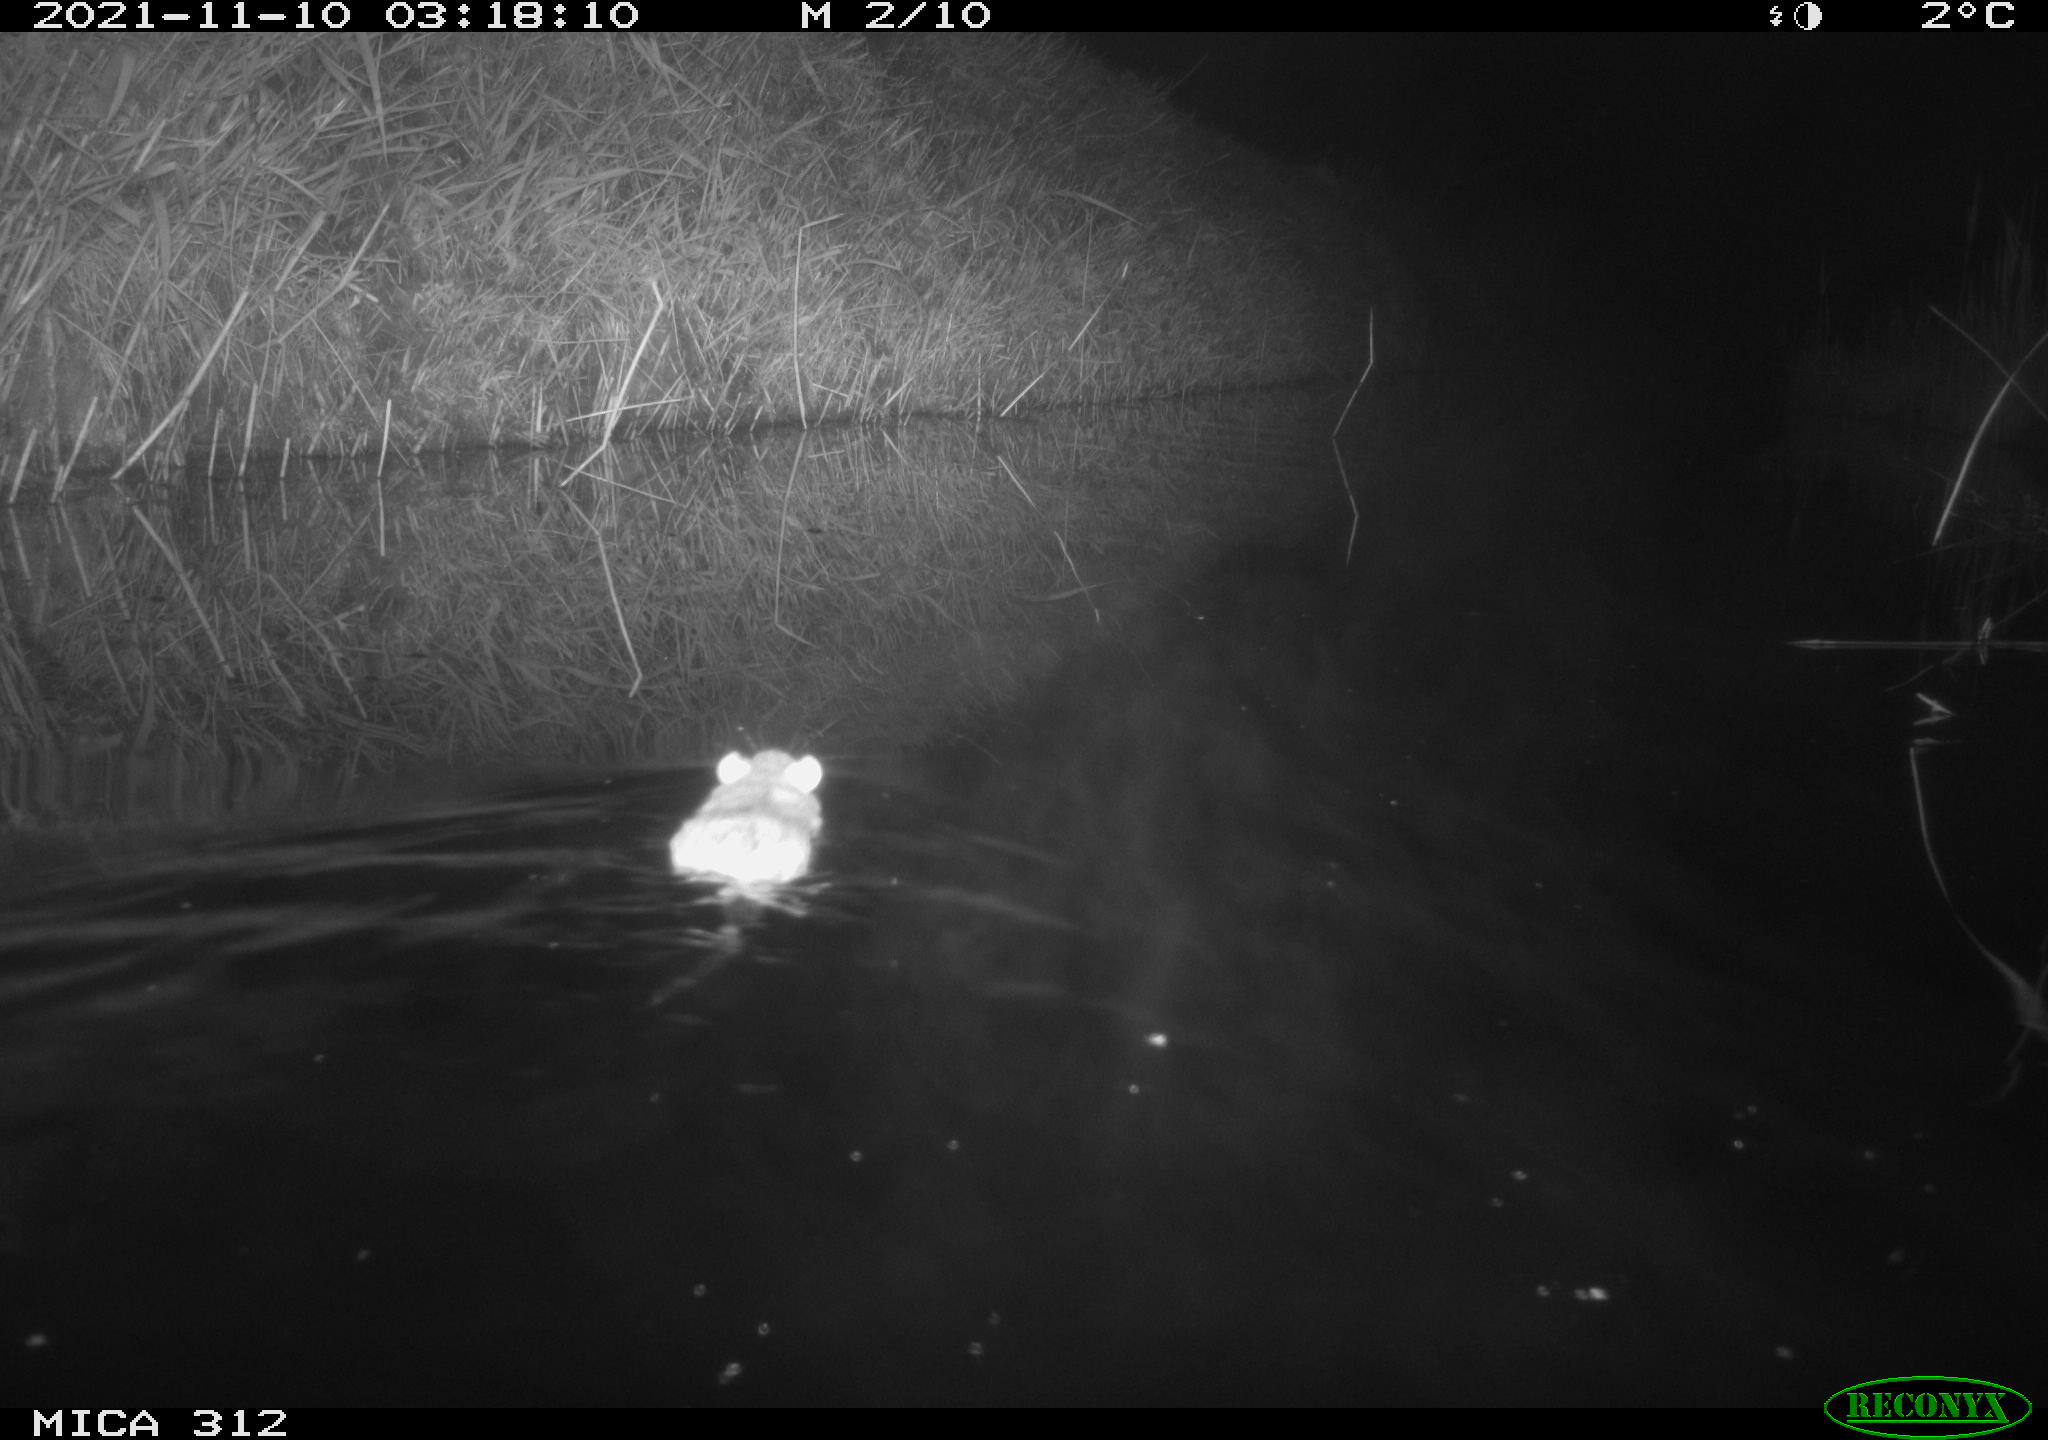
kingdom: Animalia
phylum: Chordata
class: Mammalia
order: Rodentia
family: Muridae
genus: Rattus
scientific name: Rattus norvegicus
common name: Brown rat
